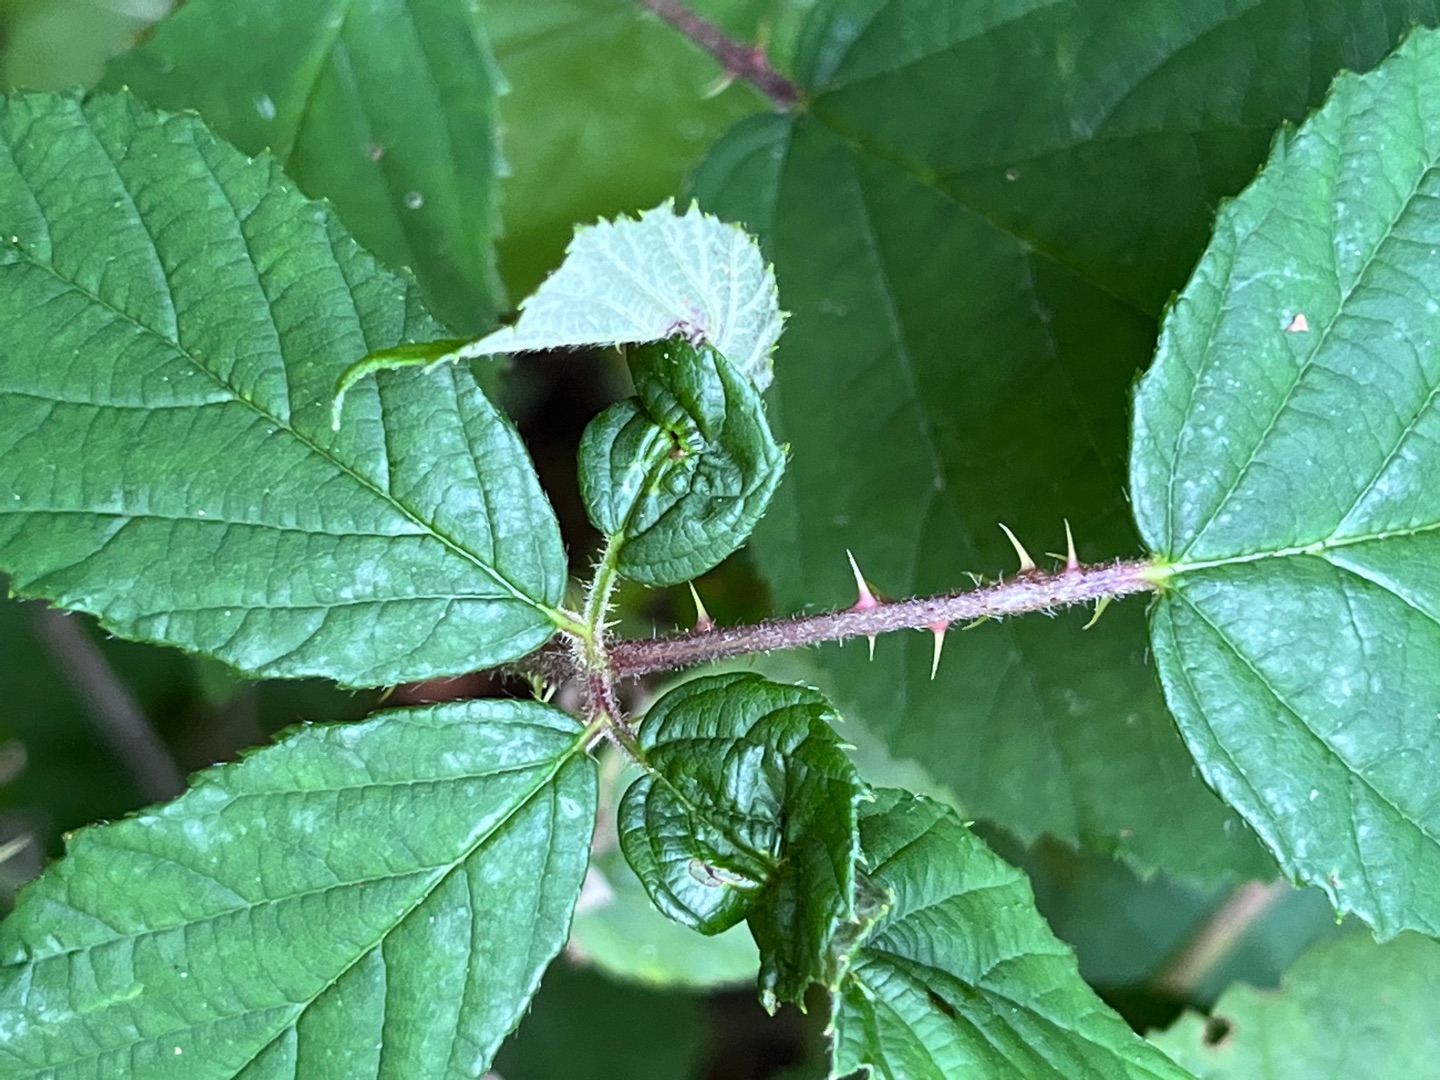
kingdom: Animalia
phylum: Arthropoda
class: Insecta
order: Diptera
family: Cecidomyiidae
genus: Dasineura
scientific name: Dasineura plicatrix
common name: Brombærbladgalmyg
